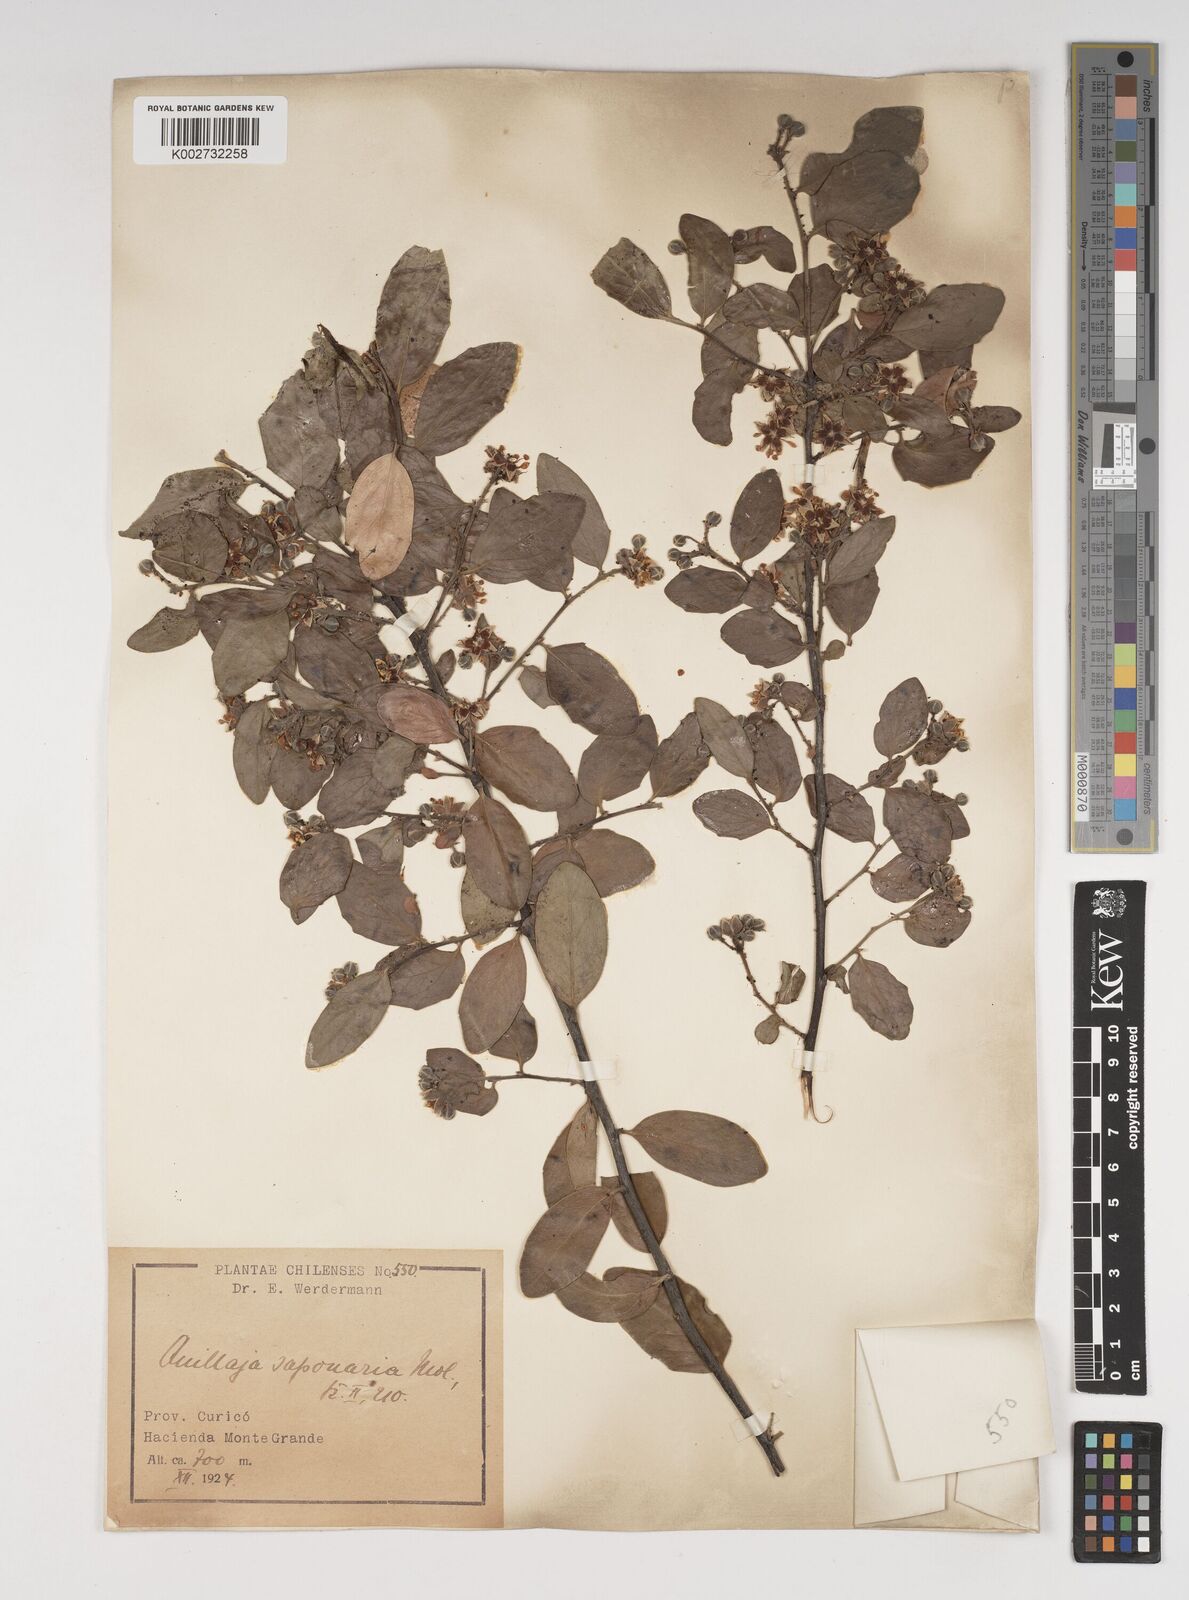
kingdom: Plantae
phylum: Tracheophyta
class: Magnoliopsida
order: Fabales
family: Quillajaceae
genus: Quillaja
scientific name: Quillaja saponaria
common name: Murillo's-bark
